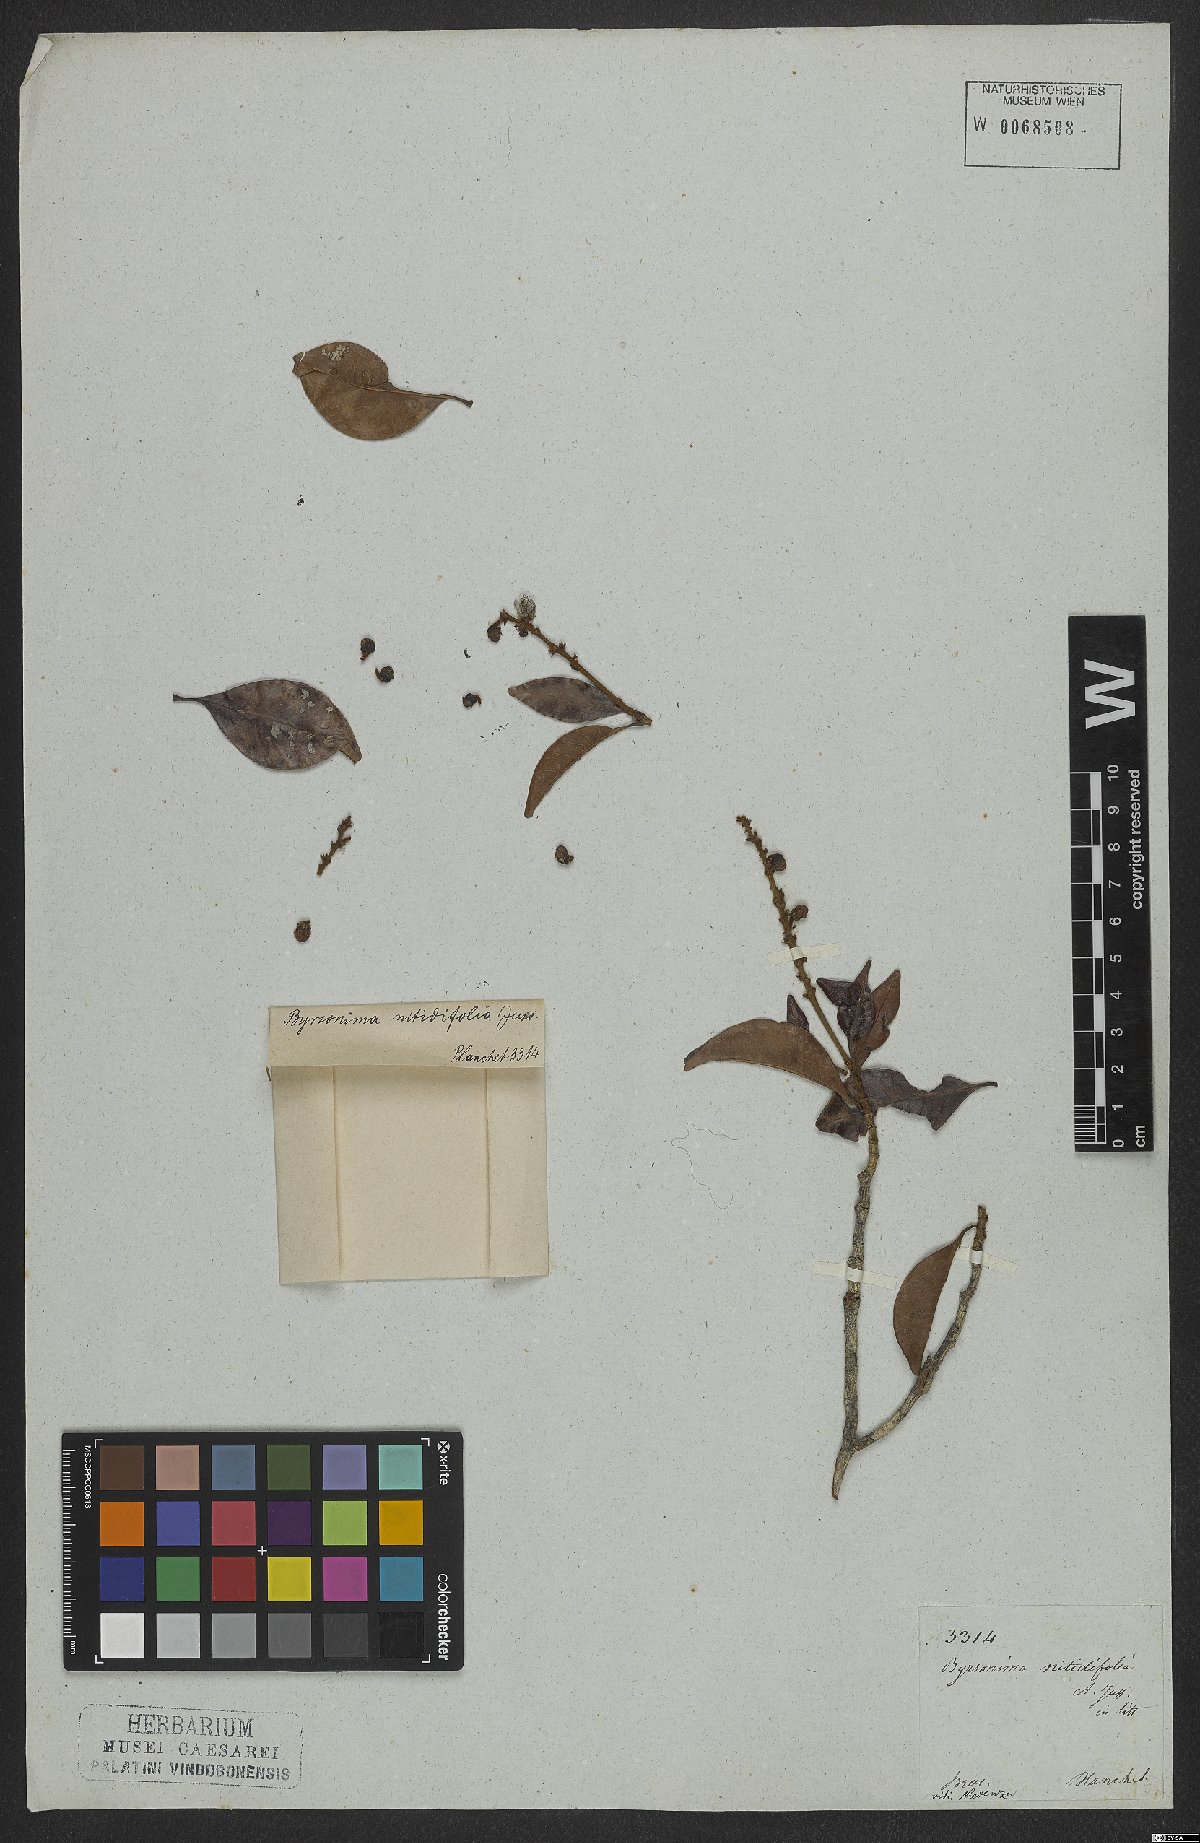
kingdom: Plantae
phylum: Tracheophyta
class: Magnoliopsida
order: Malpighiales
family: Malpighiaceae
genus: Byrsonima
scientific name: Byrsonima nitidifolia
